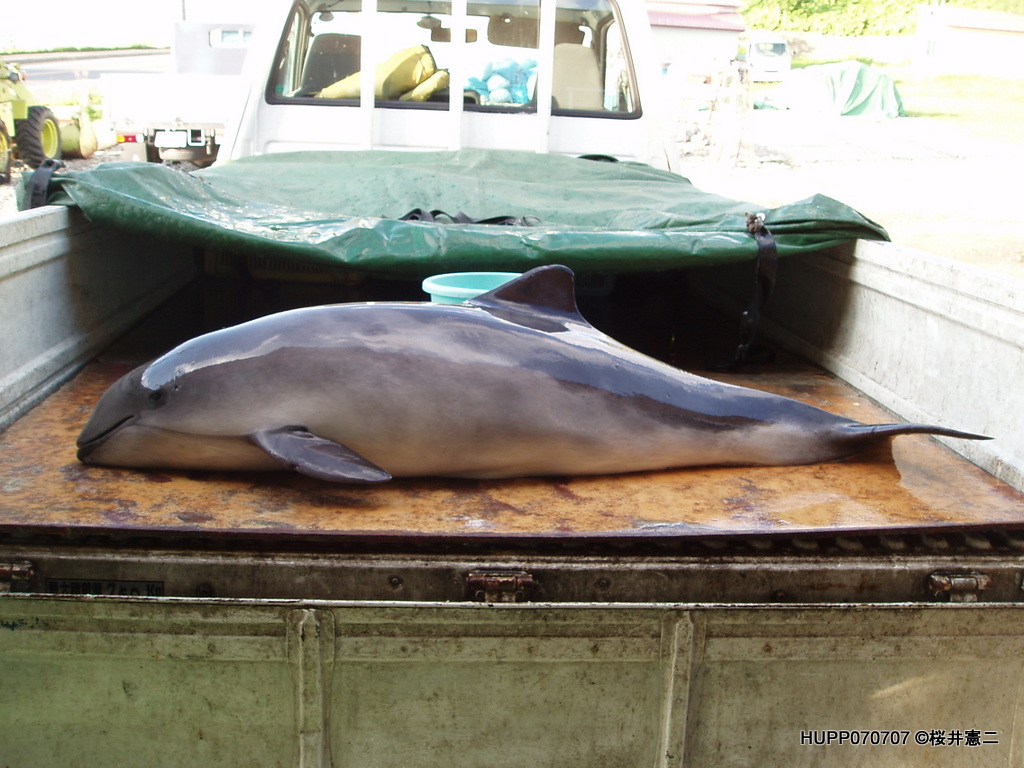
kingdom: Animalia
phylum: Chordata
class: Mammalia
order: Cetacea
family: Phocoenidae
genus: Phocoena
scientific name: Phocoena phocoena
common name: Harbour porpoise
